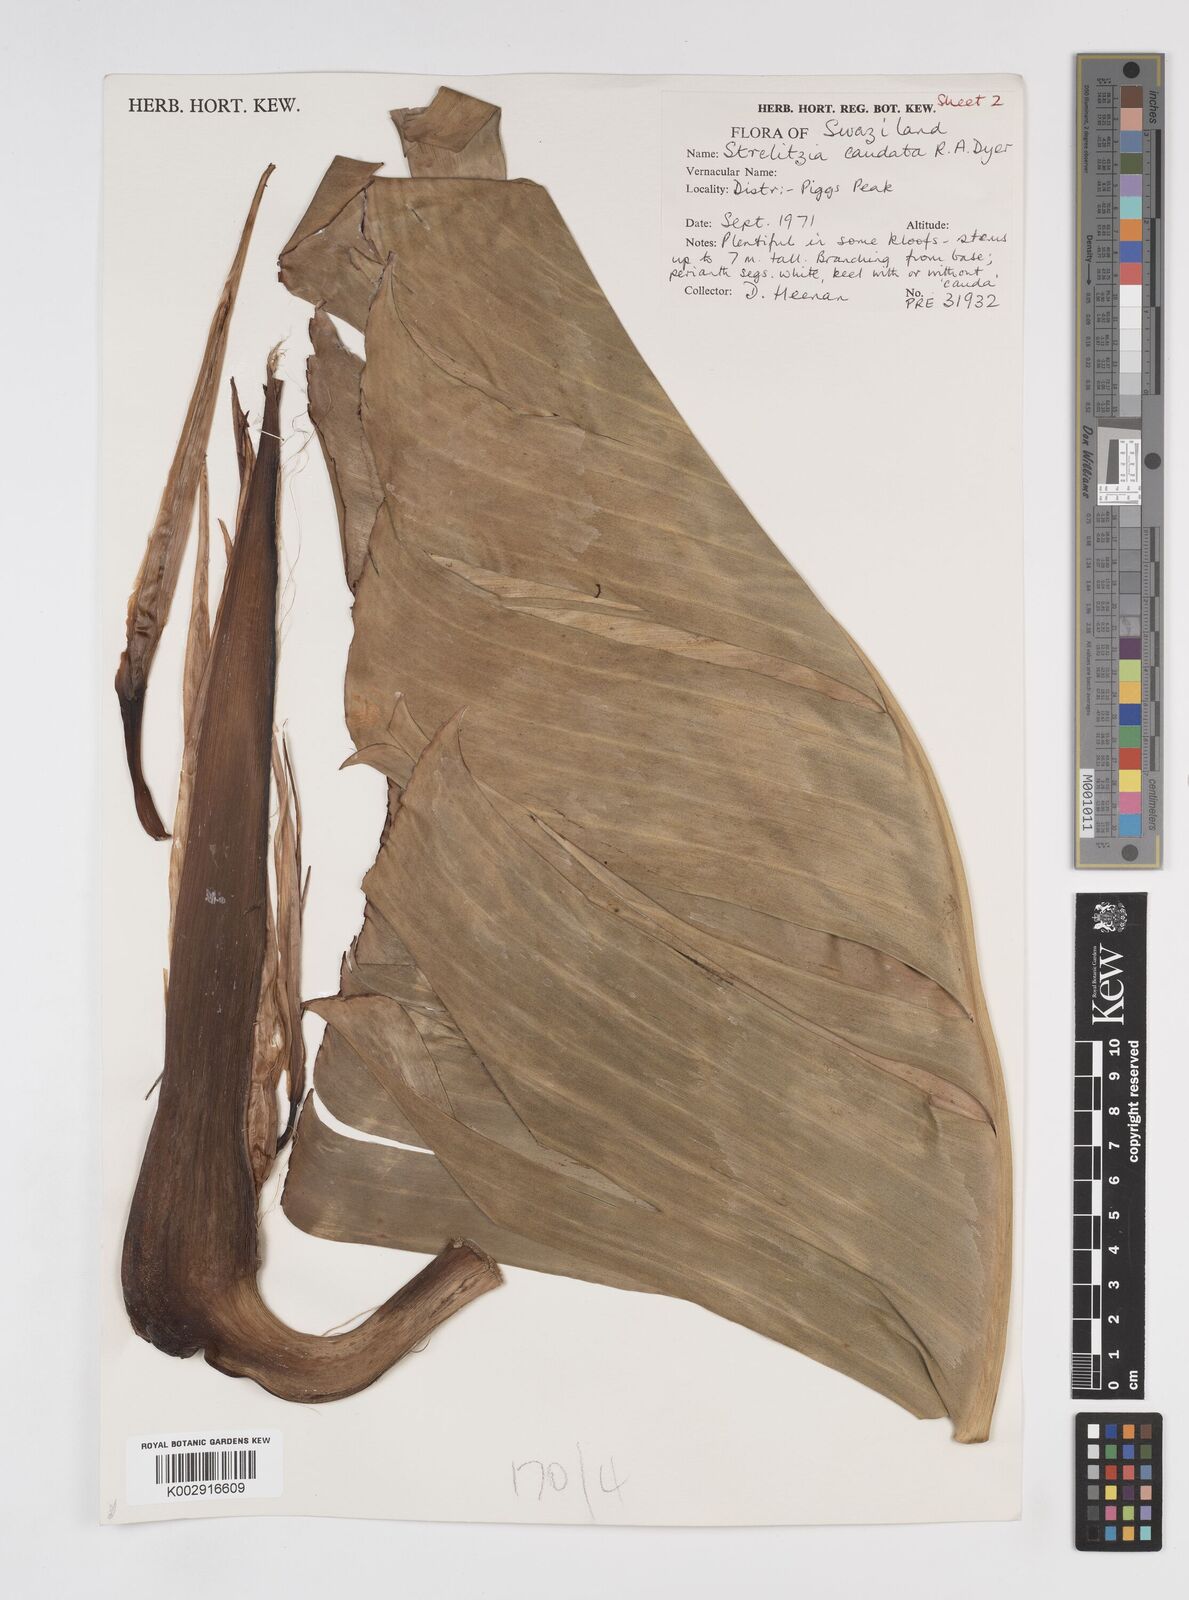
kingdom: Plantae
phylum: Tracheophyta
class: Liliopsida
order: Zingiberales
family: Strelitziaceae
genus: Strelitzia
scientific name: Strelitzia caudata
